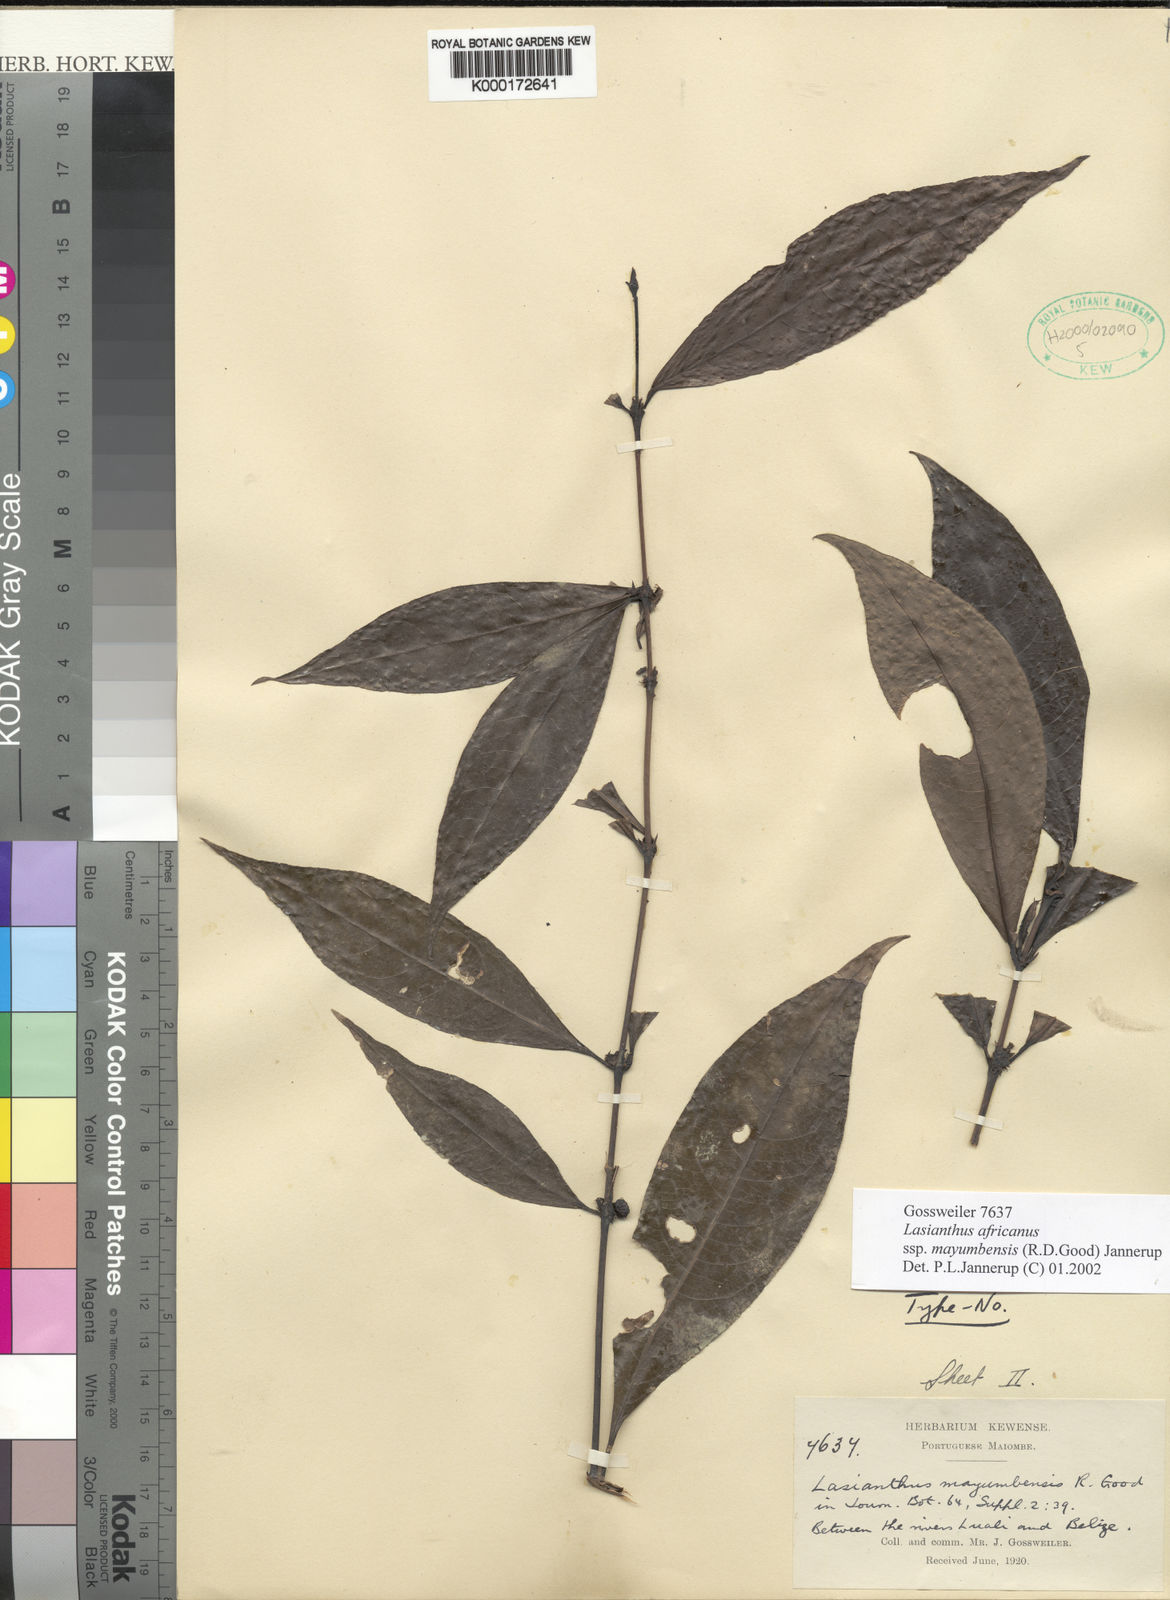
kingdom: Plantae
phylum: Tracheophyta
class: Magnoliopsida
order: Gentianales
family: Rubiaceae
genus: Lasianthus
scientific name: Lasianthus batangensis
